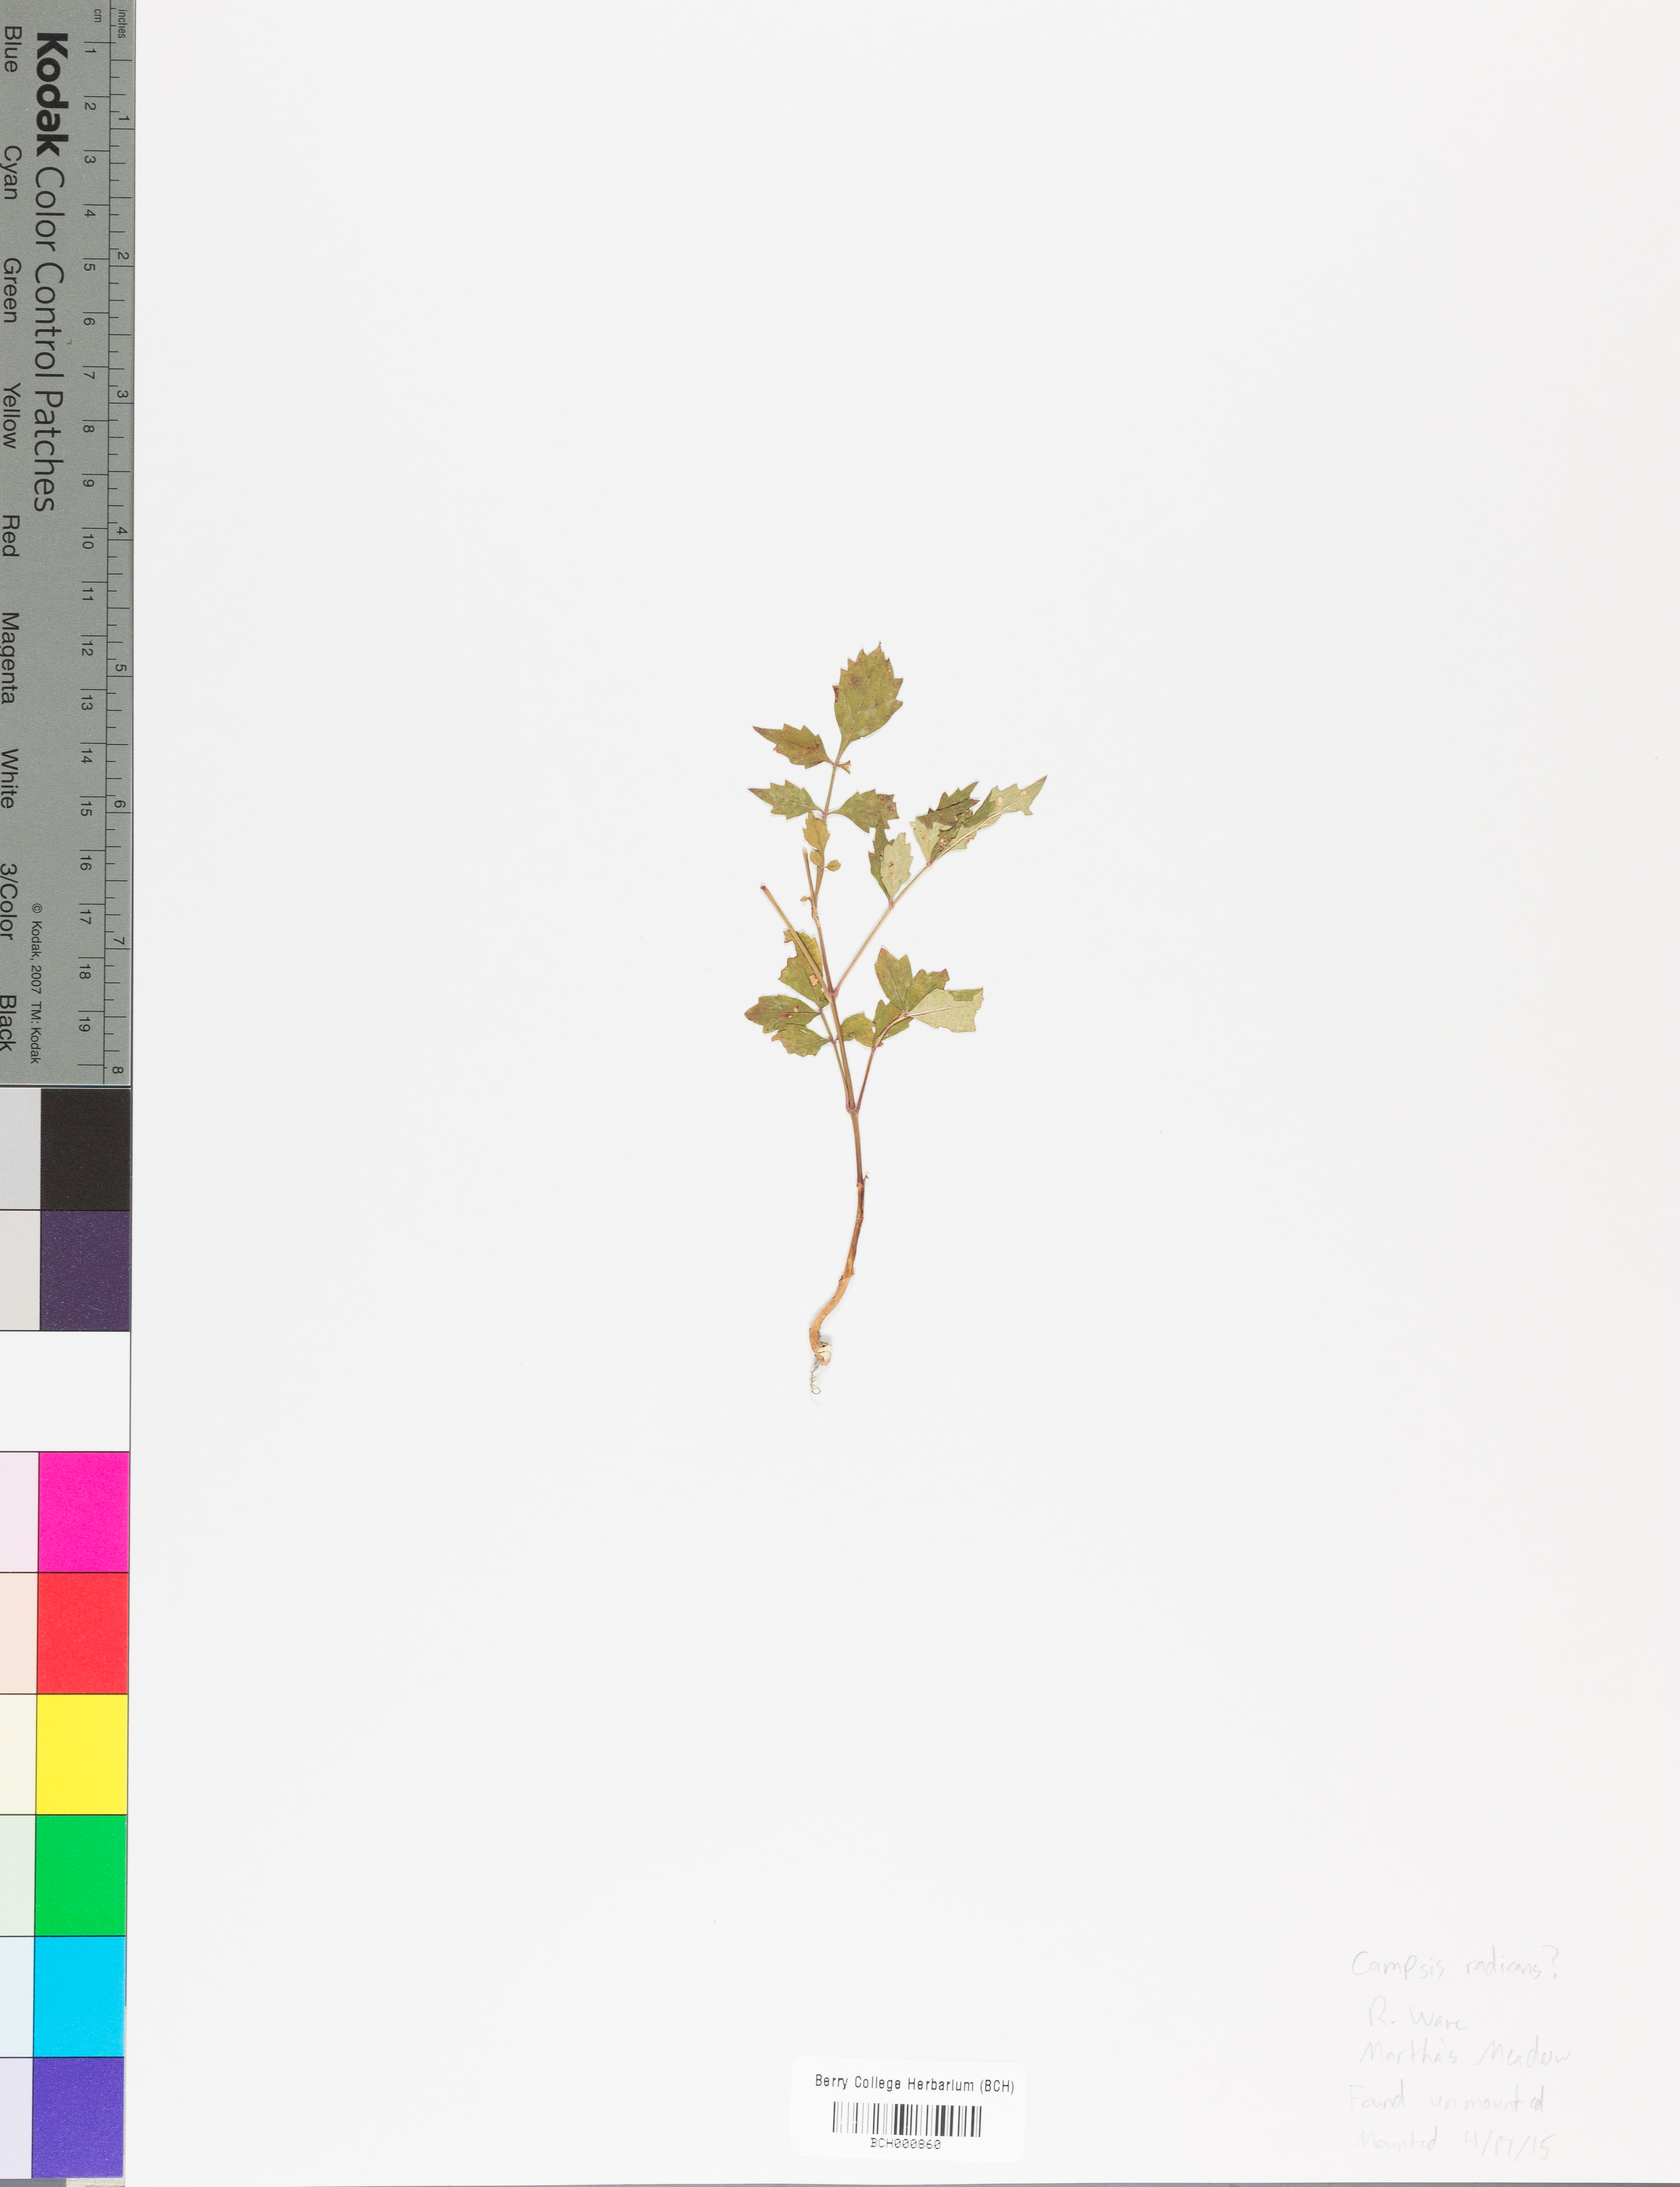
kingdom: Plantae
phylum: Tracheophyta
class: Magnoliopsida
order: Lamiales
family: Acanthaceae
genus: Adhatoda
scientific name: Adhatoda
